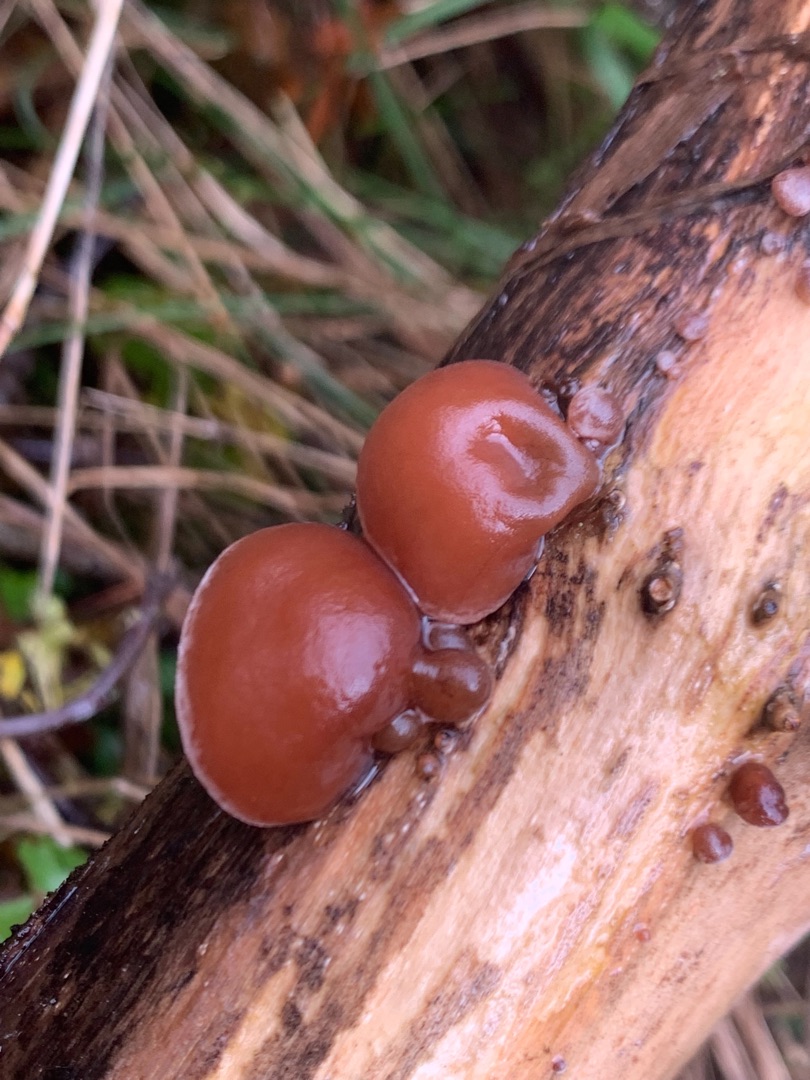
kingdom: Fungi
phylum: Basidiomycota
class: Agaricomycetes
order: Auriculariales
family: Auriculariaceae
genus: Auricularia
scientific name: Auricularia auricula-judae
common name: Almindelig judasøre
